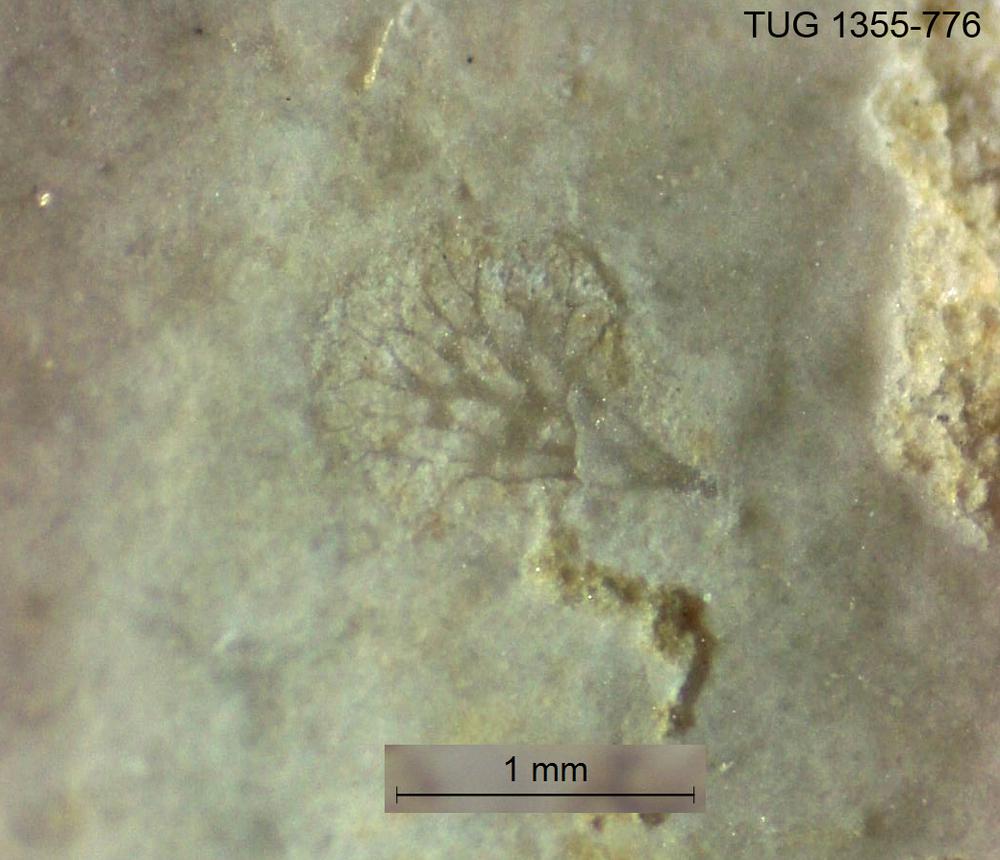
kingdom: Animalia
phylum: Arthropoda
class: Trilobita
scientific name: Trilobita
